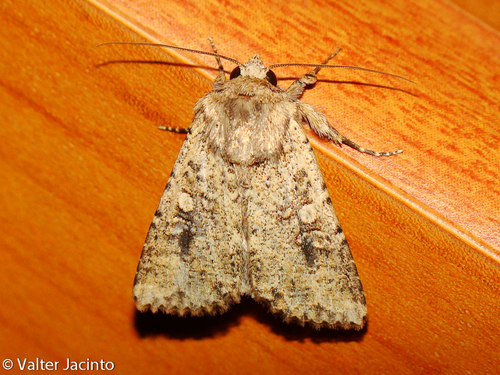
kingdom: Animalia
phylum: Arthropoda
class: Insecta
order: Lepidoptera
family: Noctuidae
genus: Mythimna
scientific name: Mythimna languida
